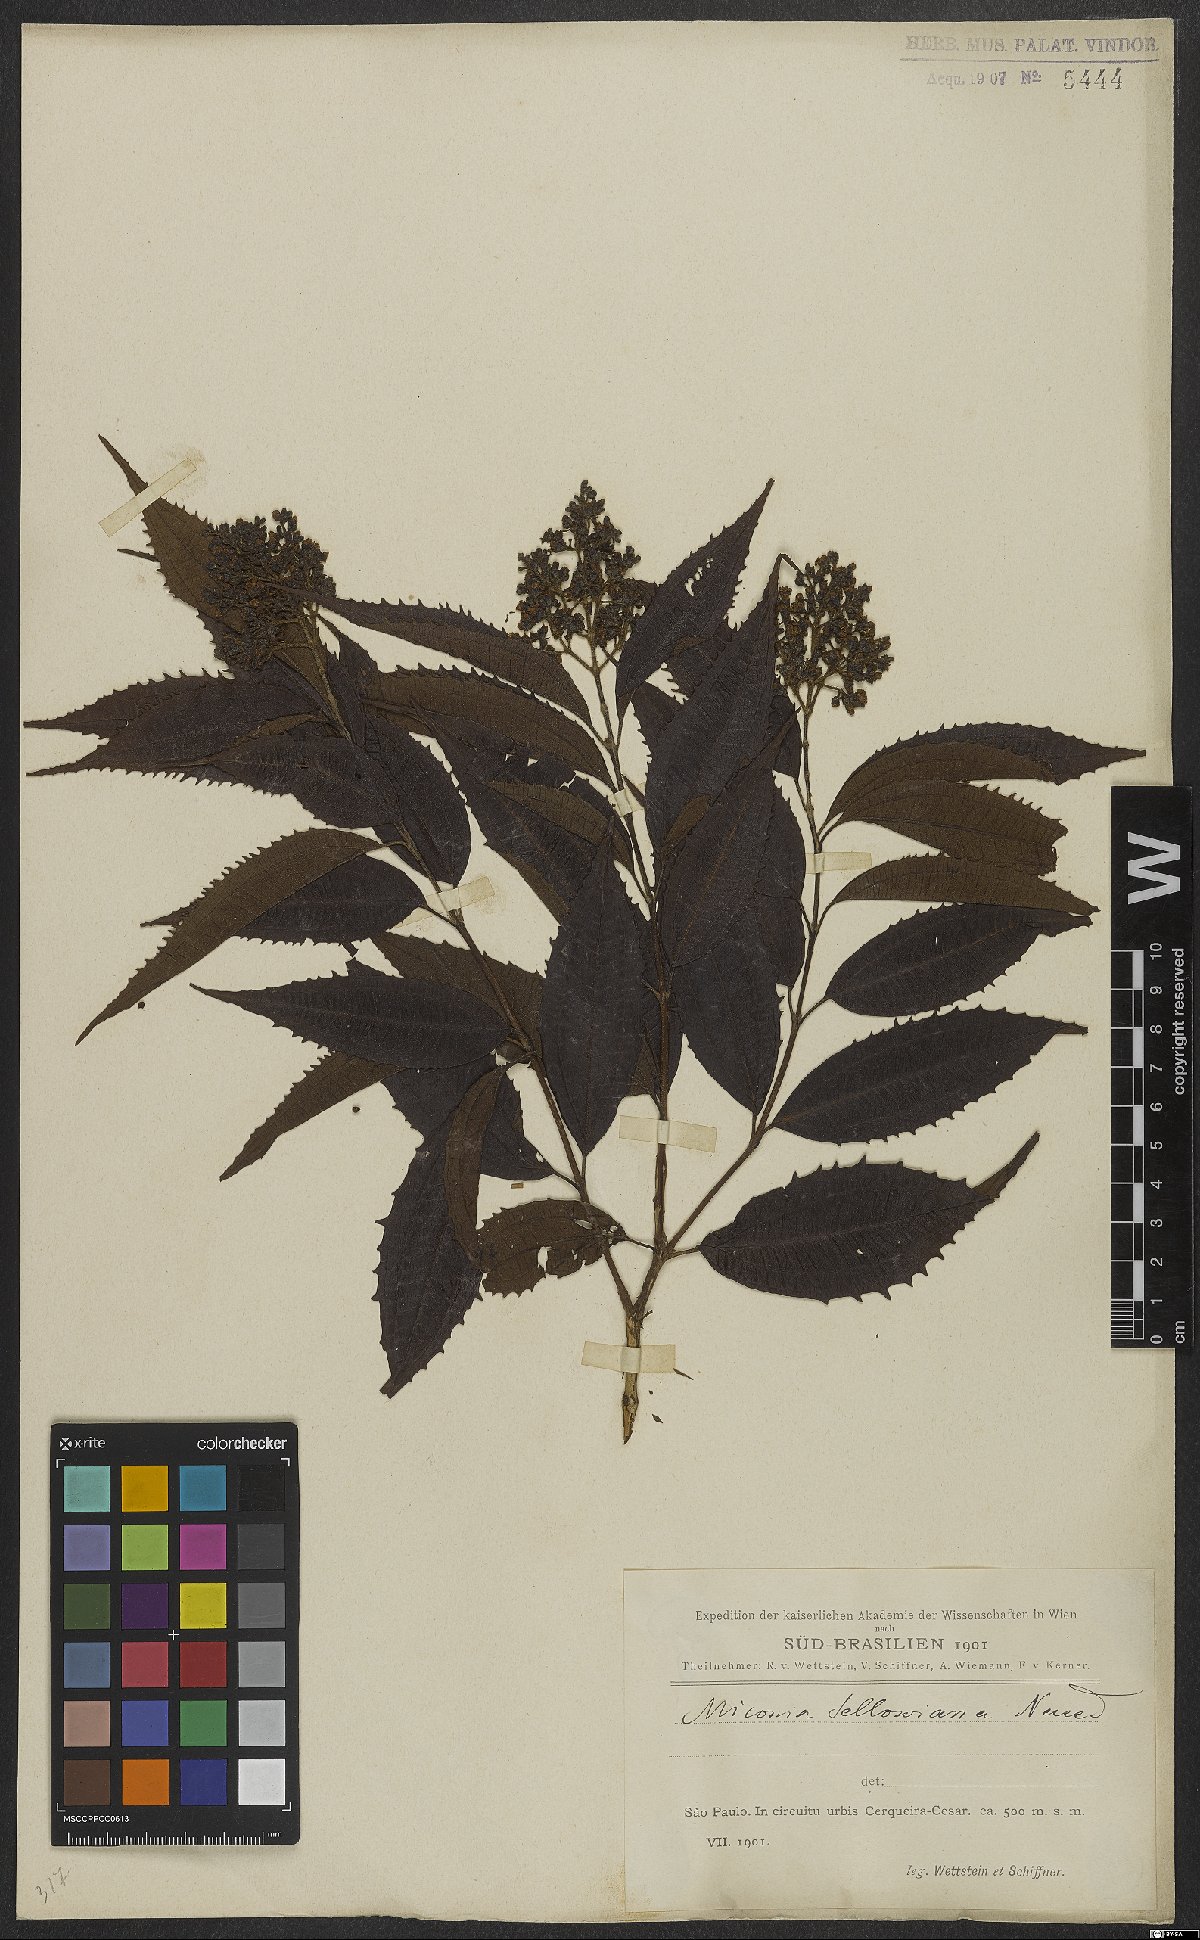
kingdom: Plantae
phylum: Tracheophyta
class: Magnoliopsida
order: Myrtales
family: Melastomataceae
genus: Miconia
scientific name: Miconia sellowiana
